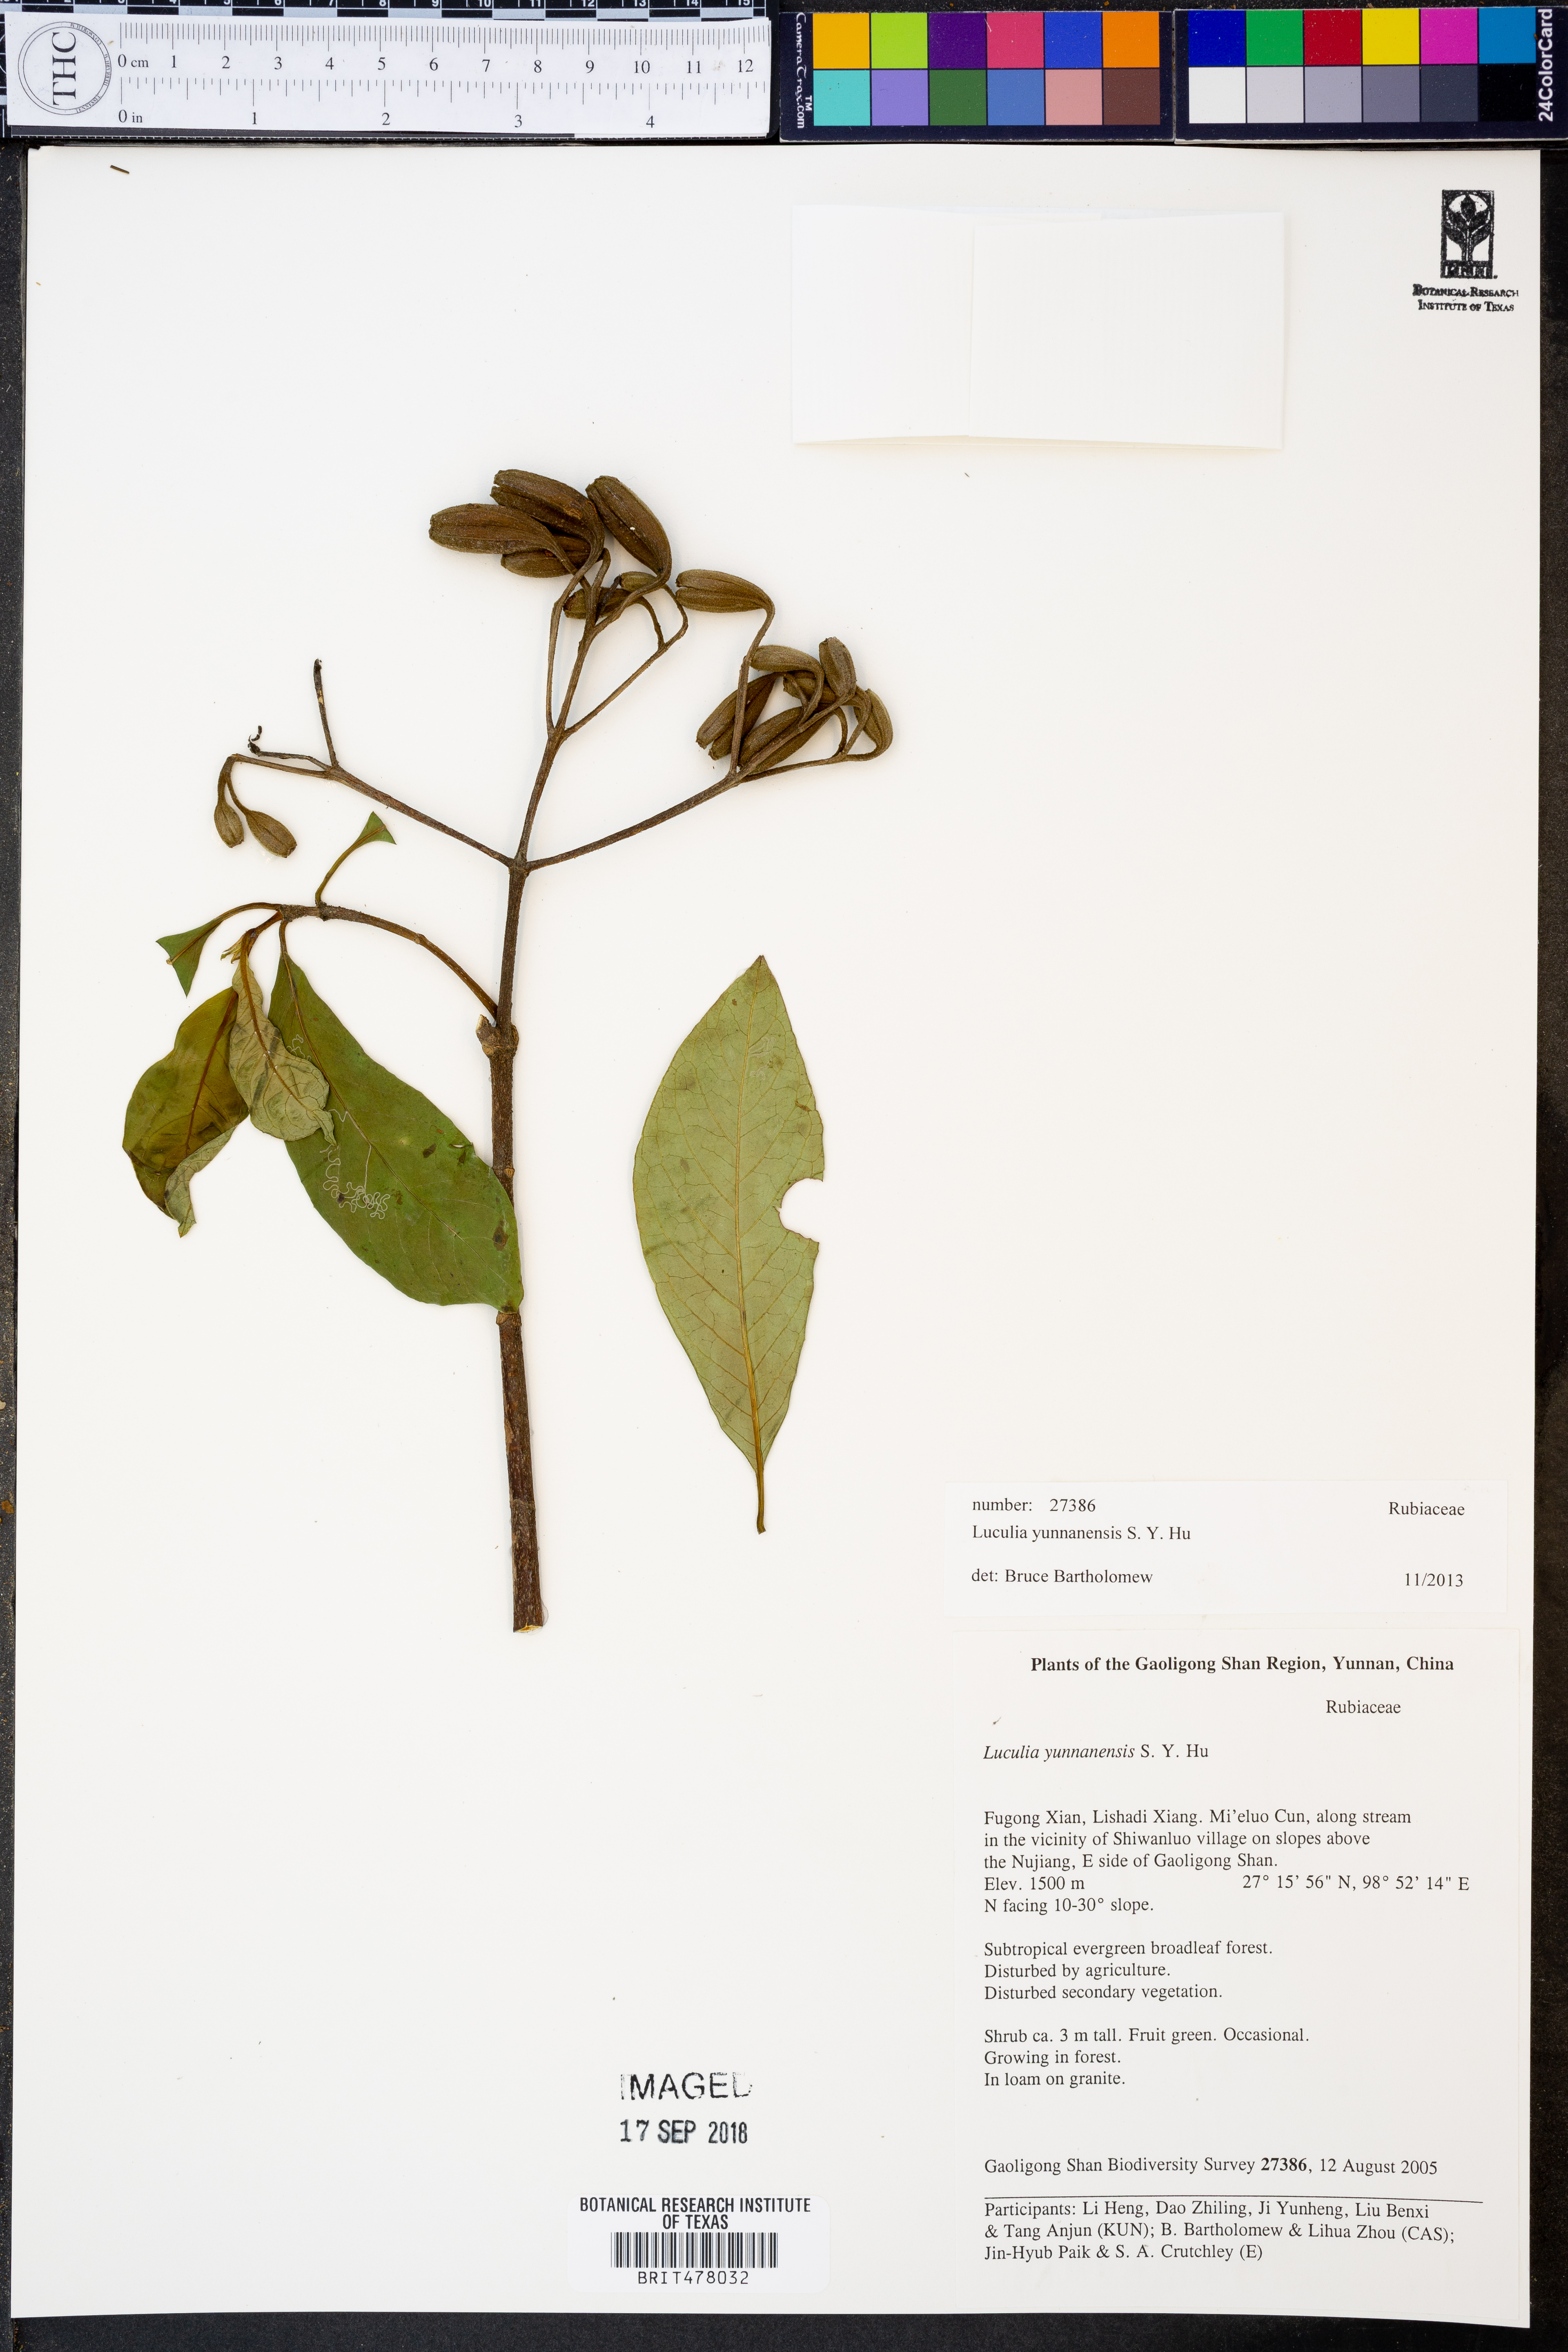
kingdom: Plantae
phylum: Tracheophyta
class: Magnoliopsida
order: Gentianales
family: Rubiaceae
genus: Luculia
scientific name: Luculia yunnanensis
